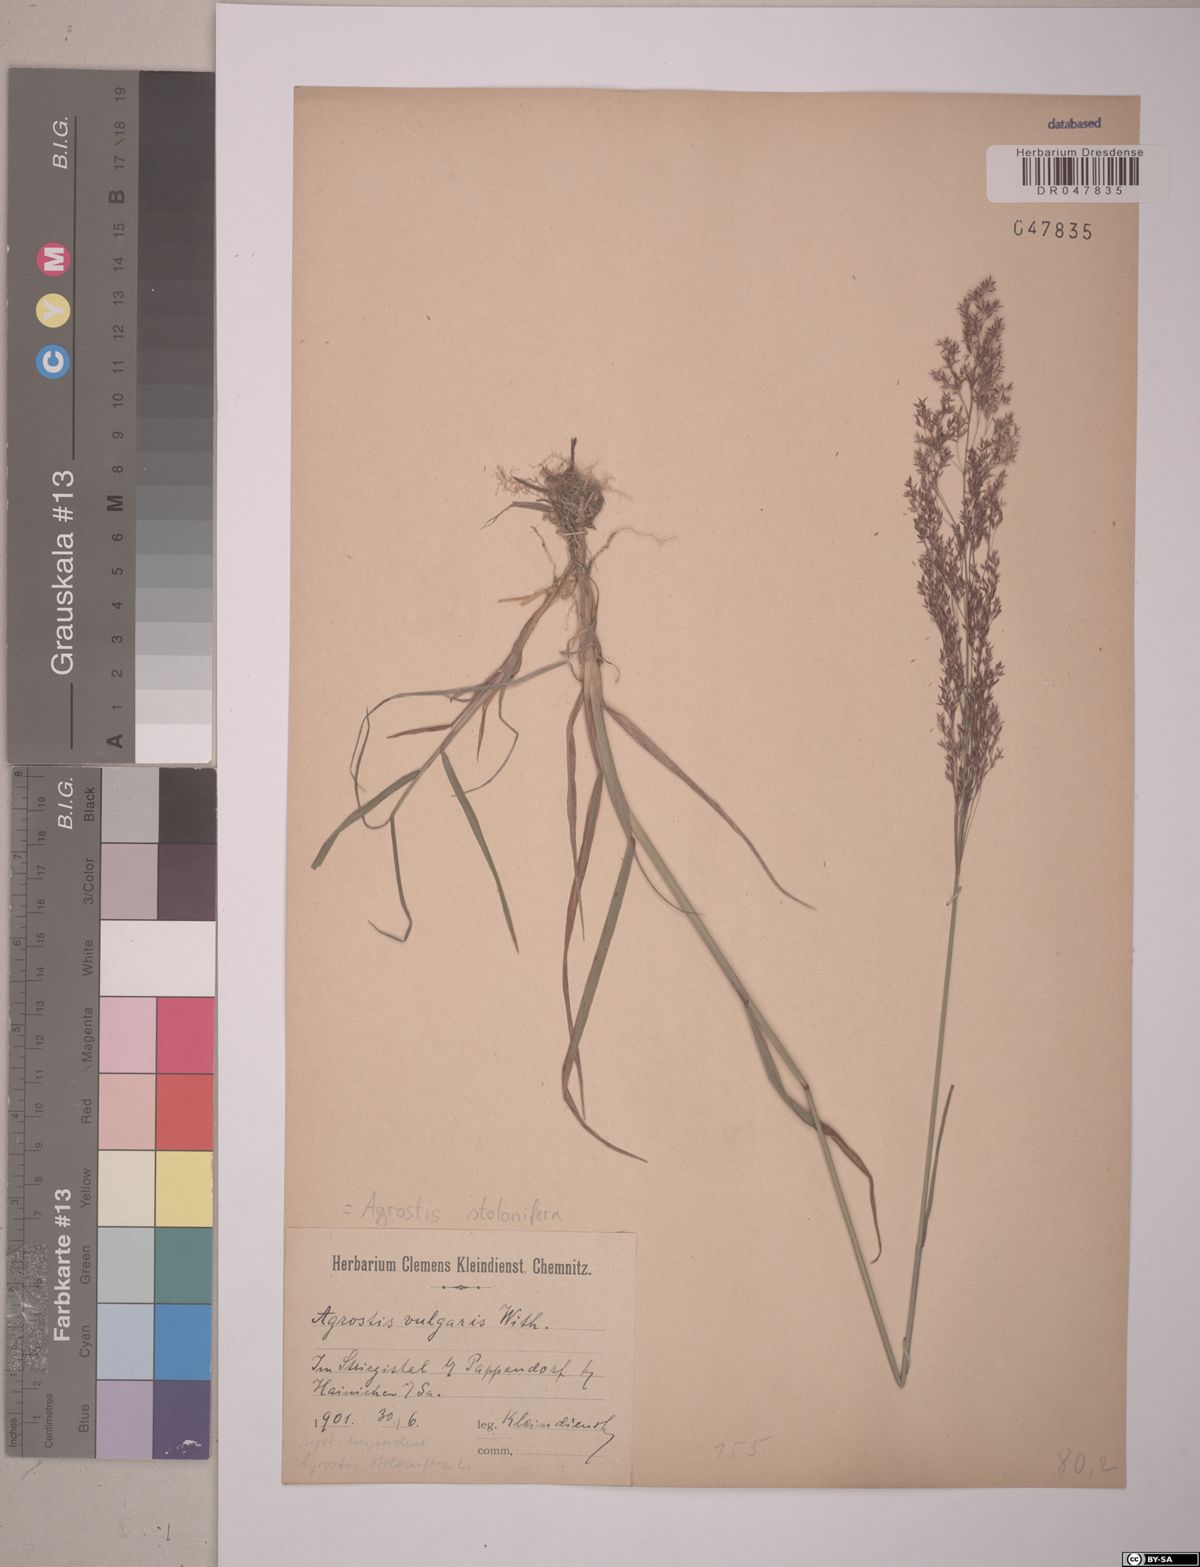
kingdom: Plantae
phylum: Tracheophyta
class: Liliopsida
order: Poales
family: Poaceae
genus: Agrostis
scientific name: Agrostis stolonifera
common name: Creeping bentgrass
